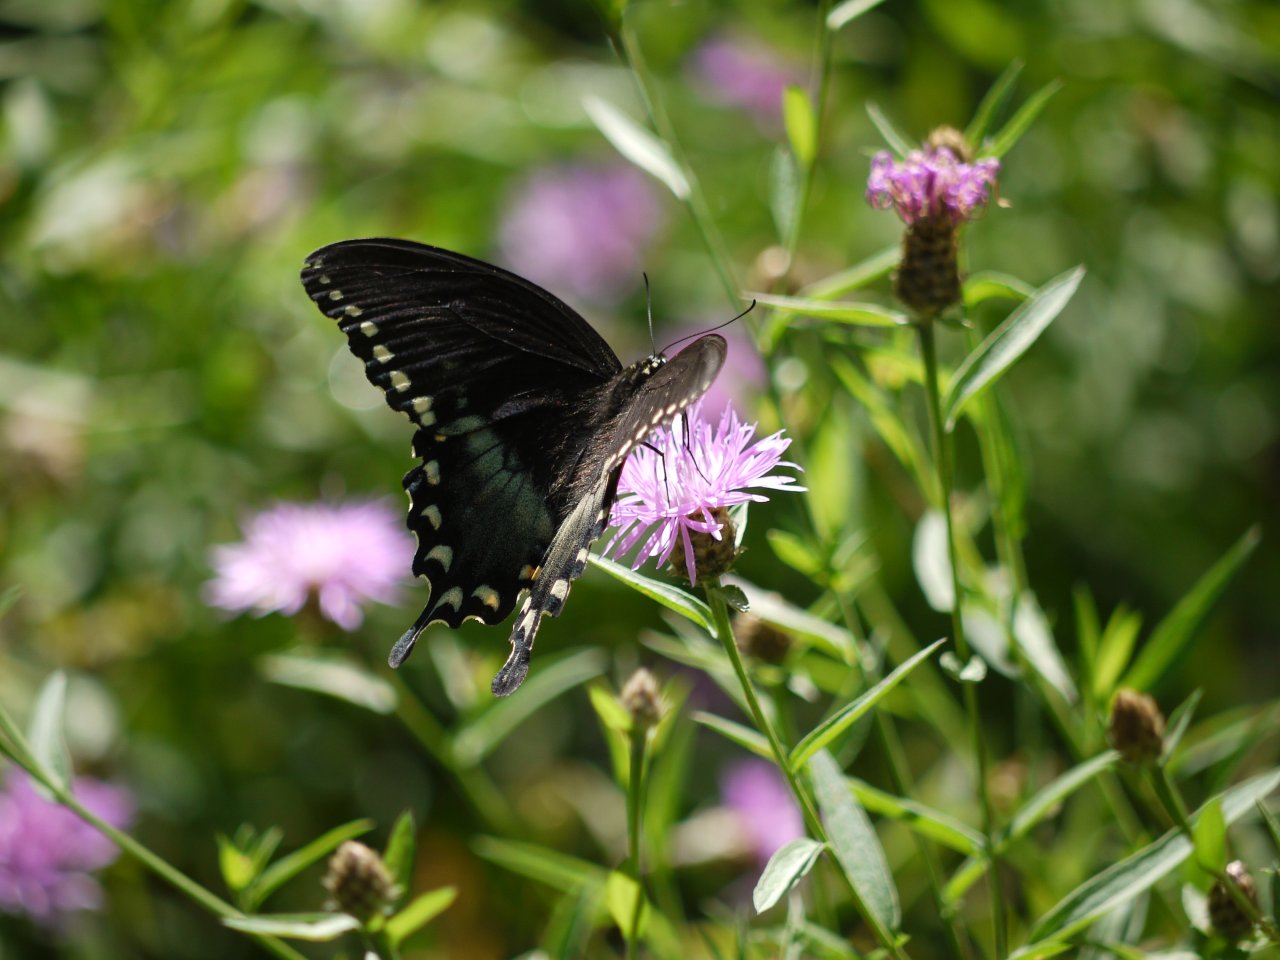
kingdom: Animalia
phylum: Arthropoda
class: Insecta
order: Lepidoptera
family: Papilionidae
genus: Pterourus
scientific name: Pterourus troilus
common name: Spicebush Swallowtail
